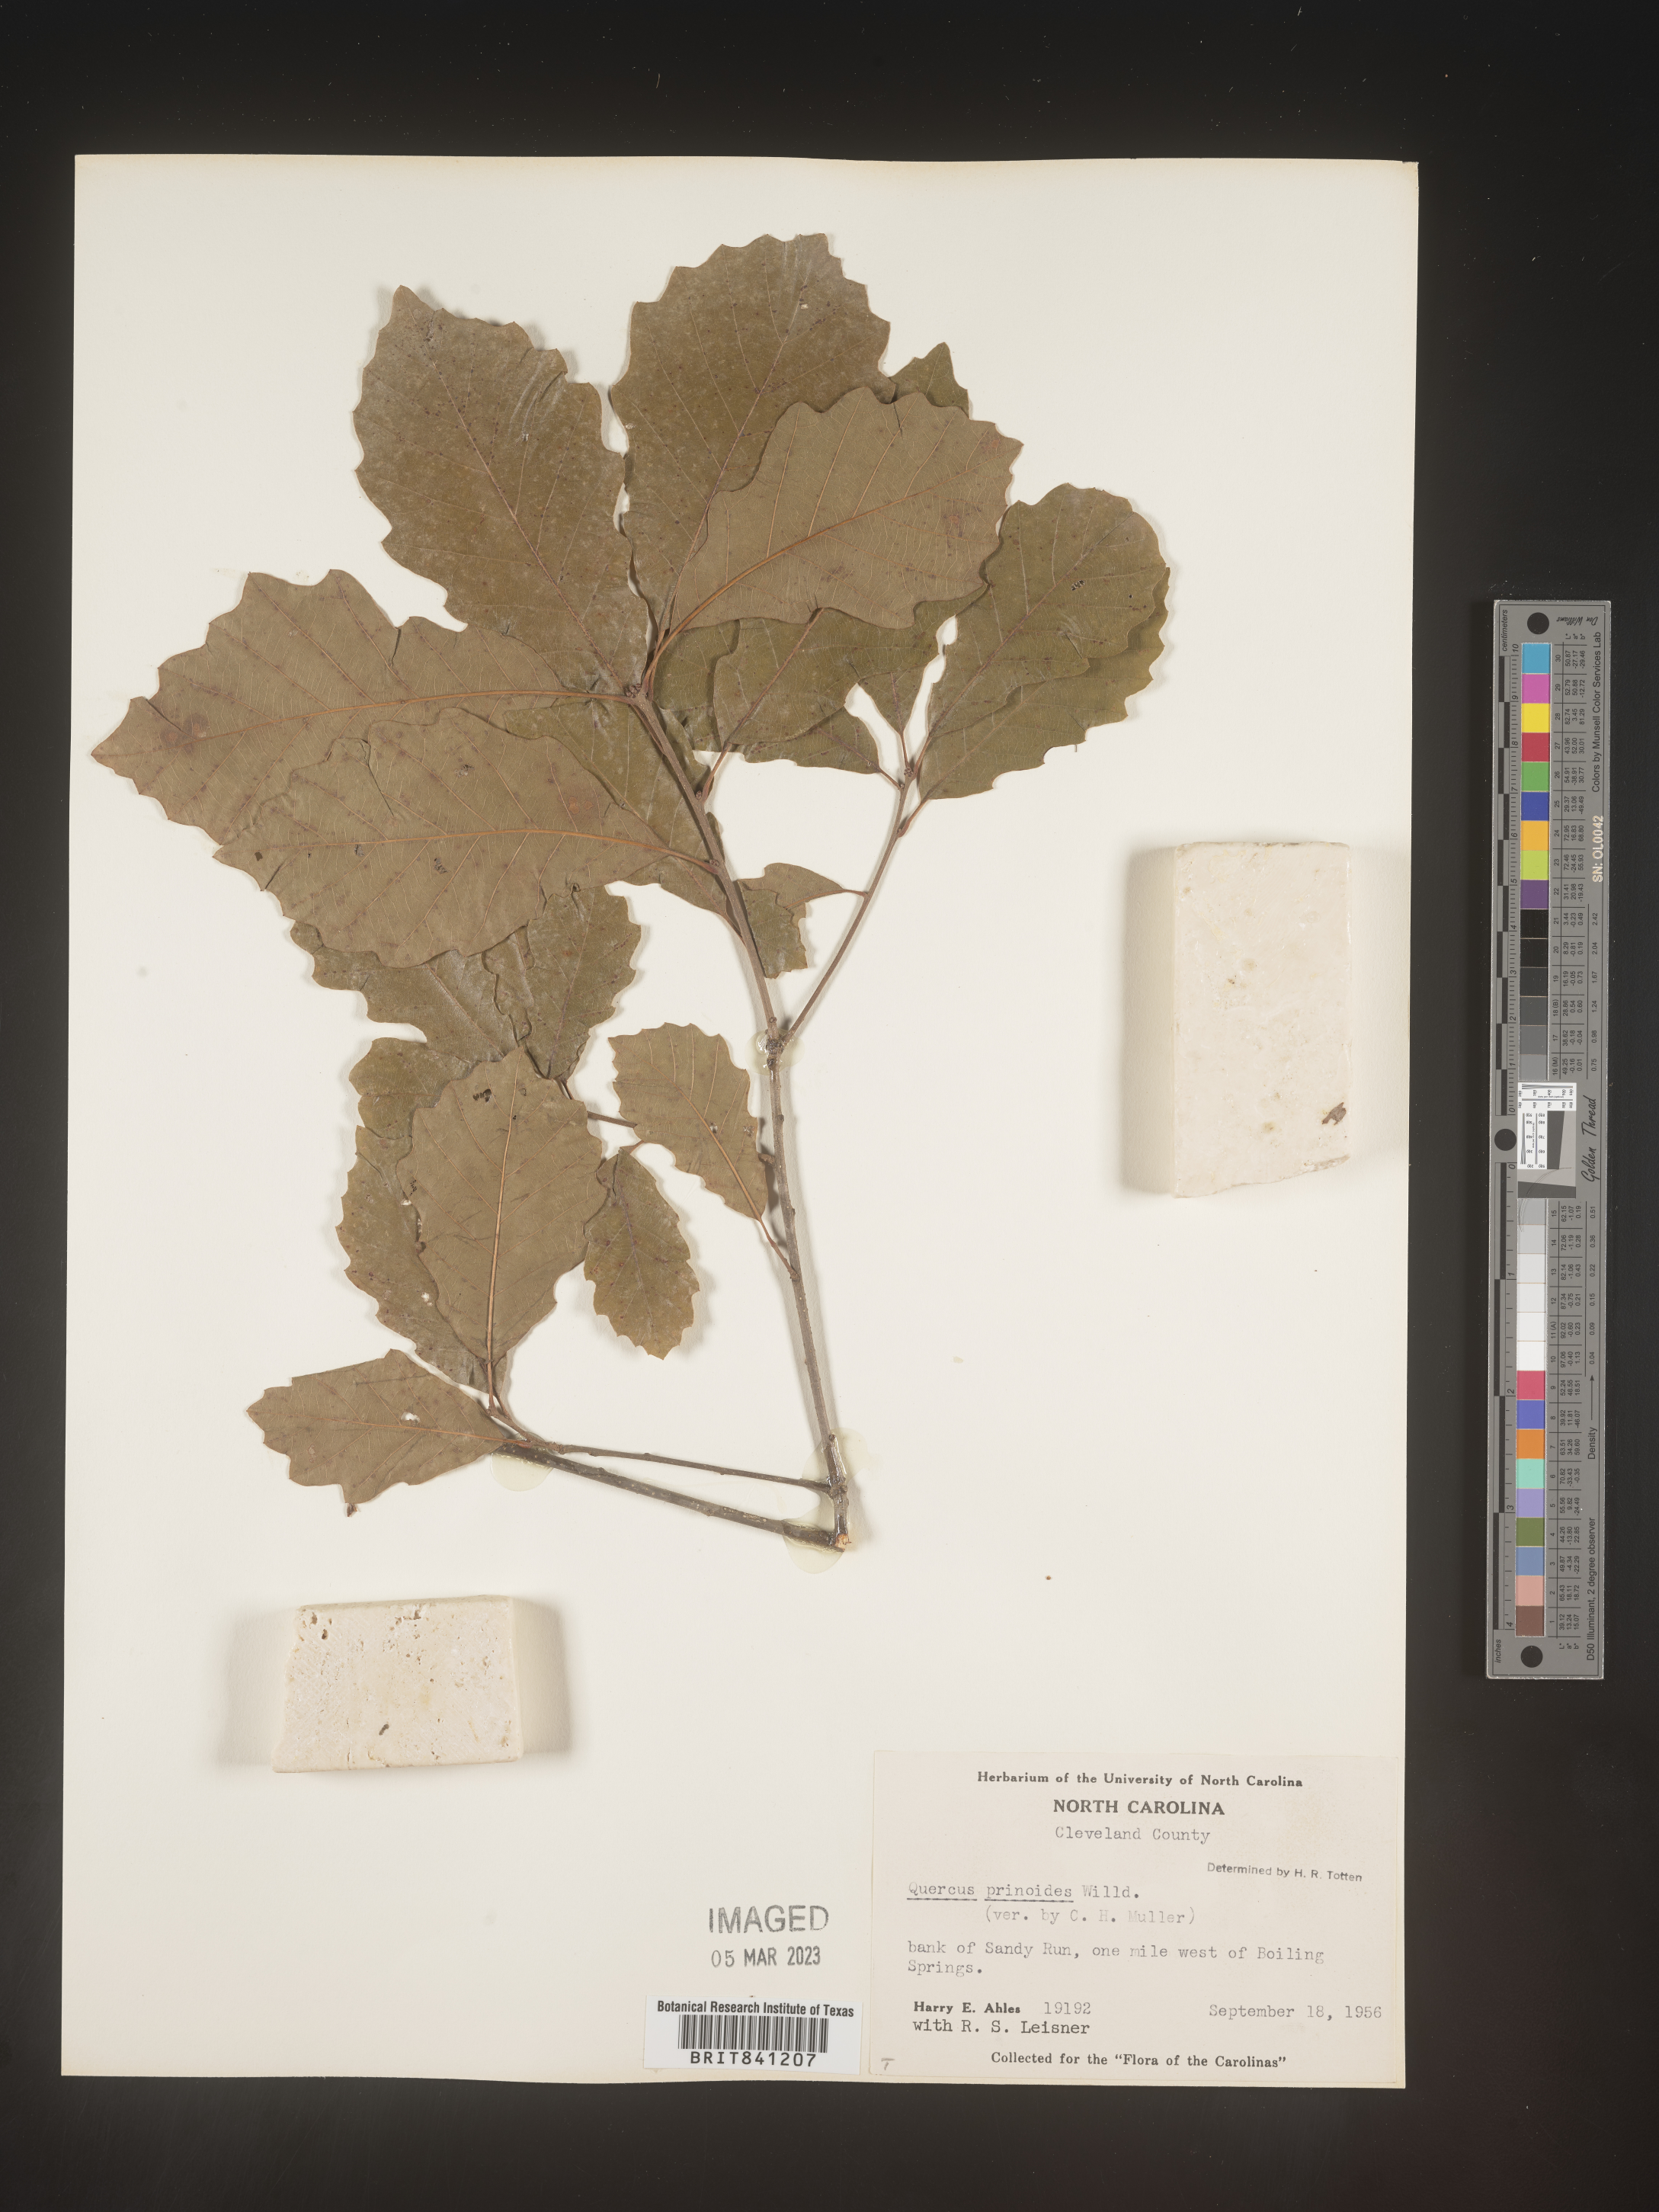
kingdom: Plantae
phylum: Tracheophyta
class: Magnoliopsida
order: Fagales
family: Fagaceae
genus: Quercus
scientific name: Quercus prinoides
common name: Dwarf chinkapin oak
